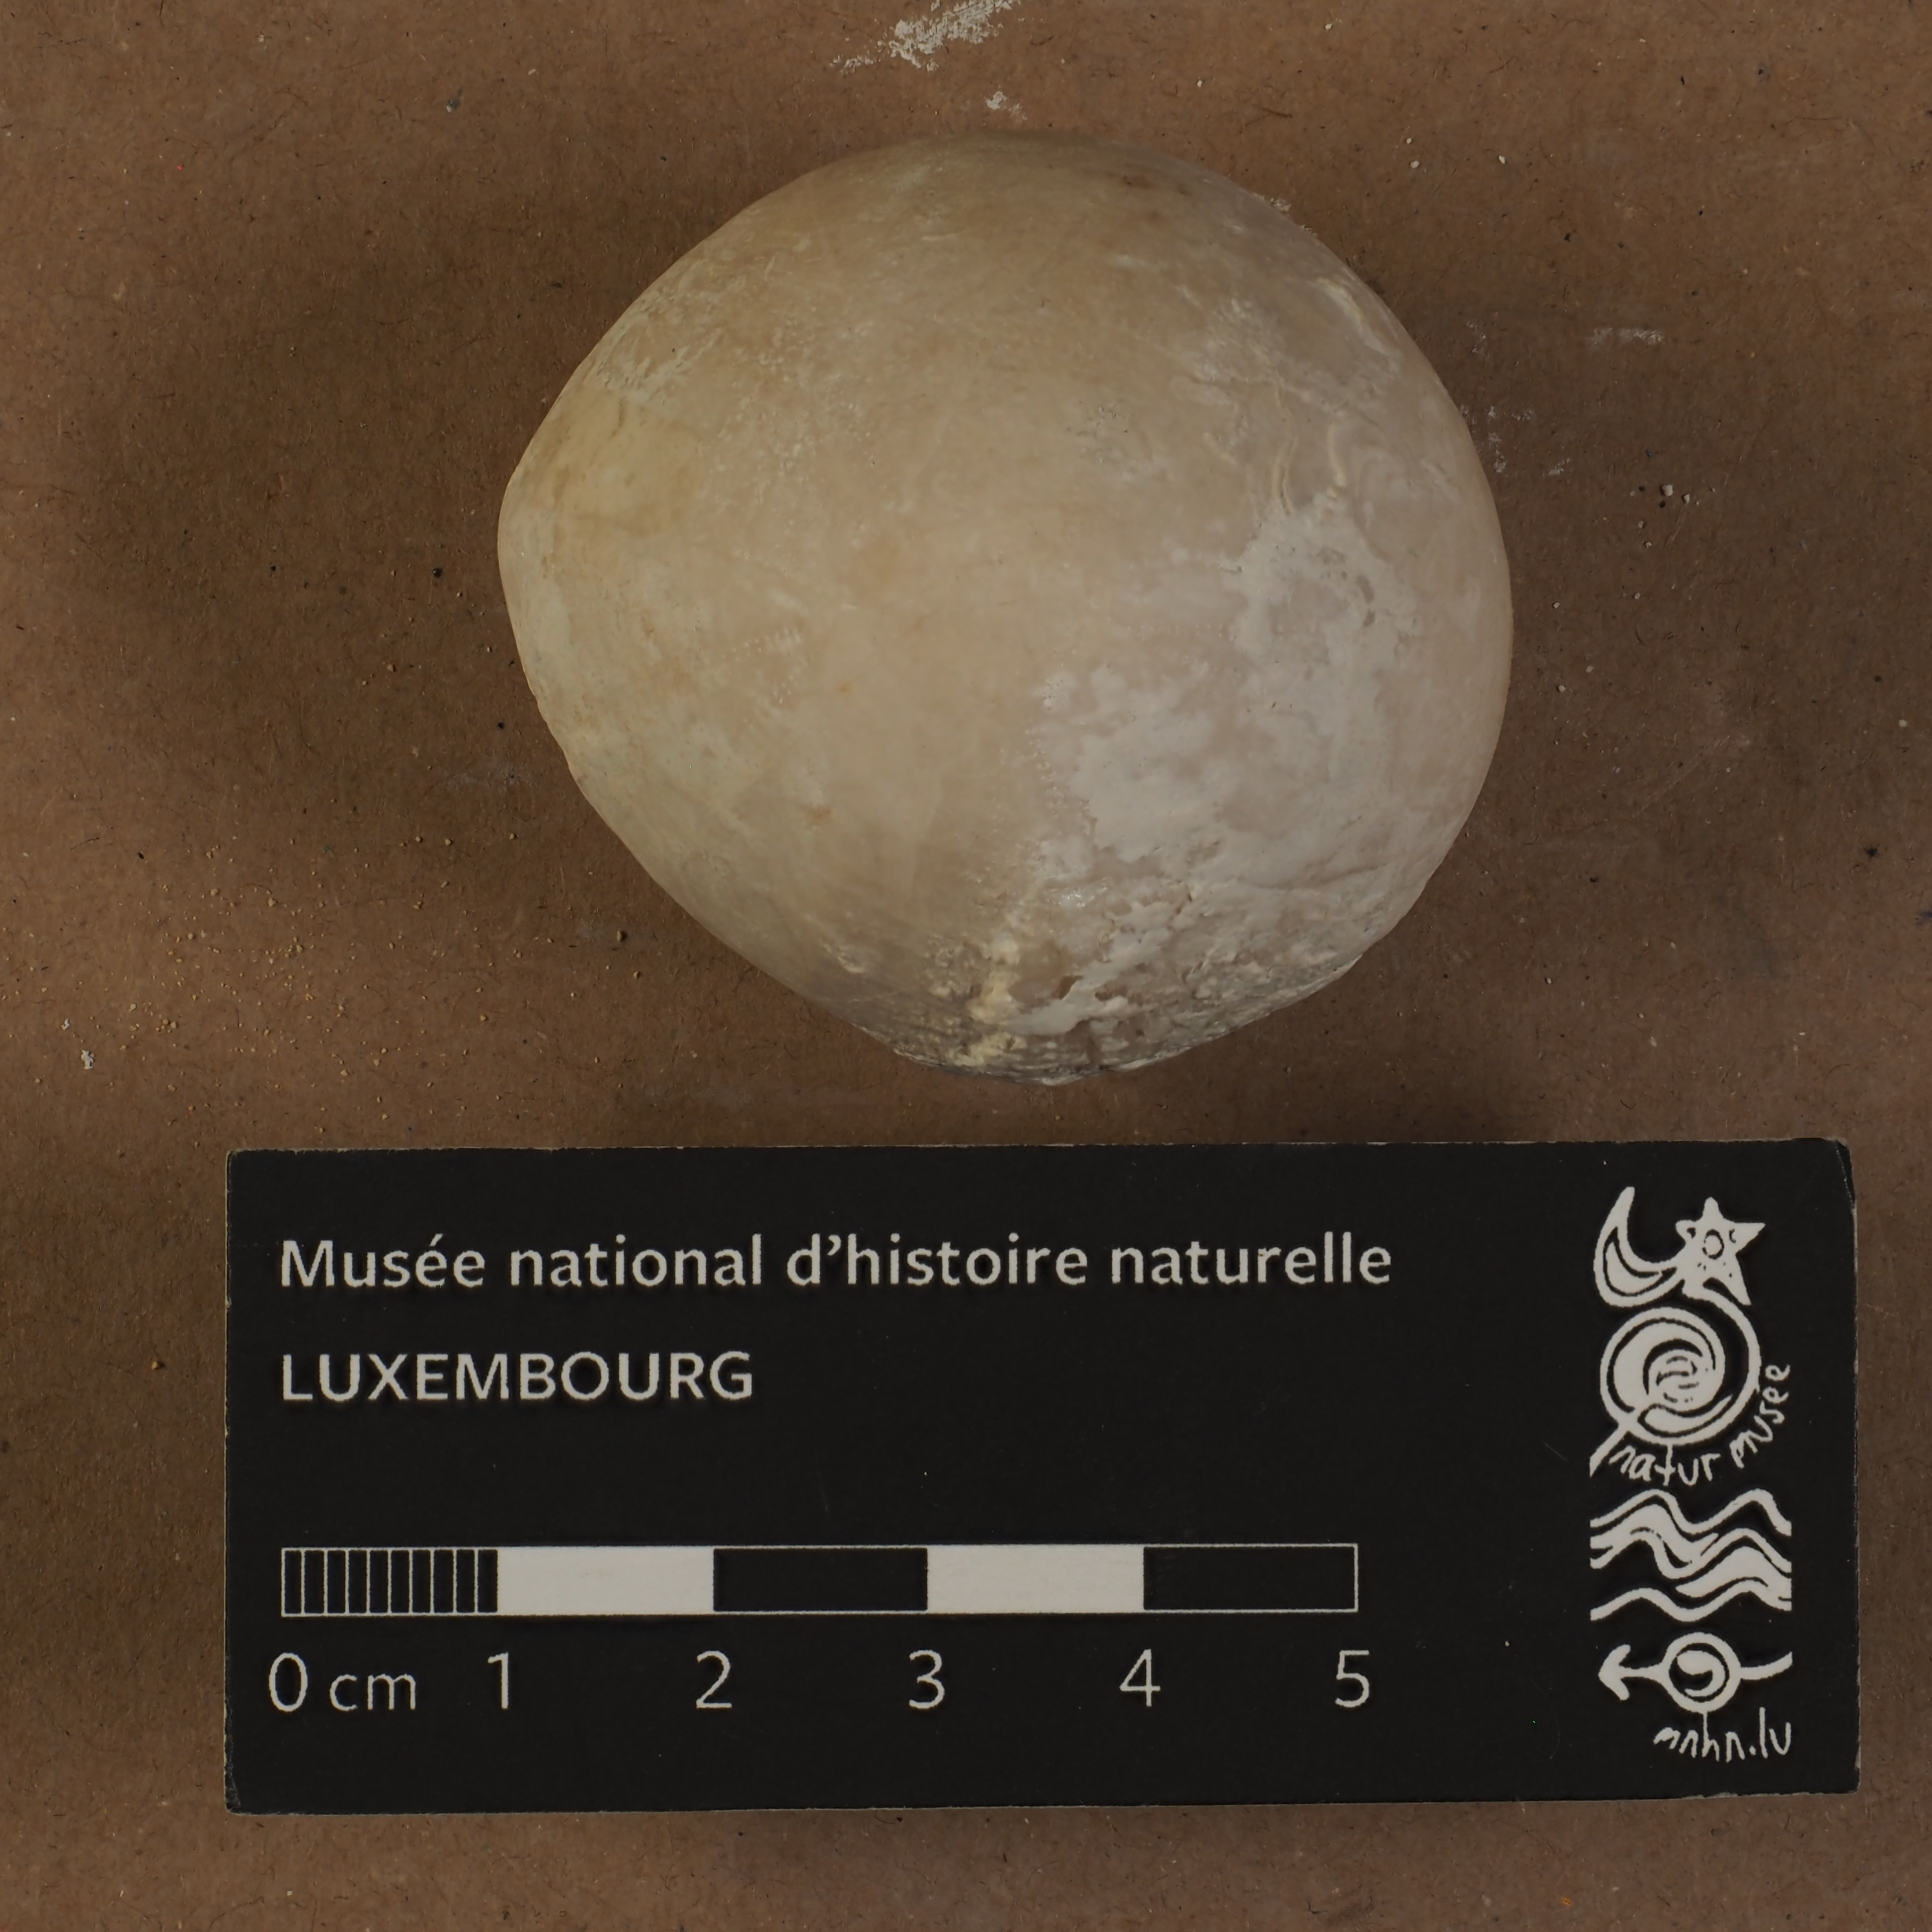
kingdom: Animalia
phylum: Echinodermata
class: Echinoidea
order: Holasteroida
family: Echinocorythidae
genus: Echinocorys
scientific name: Echinocorys
